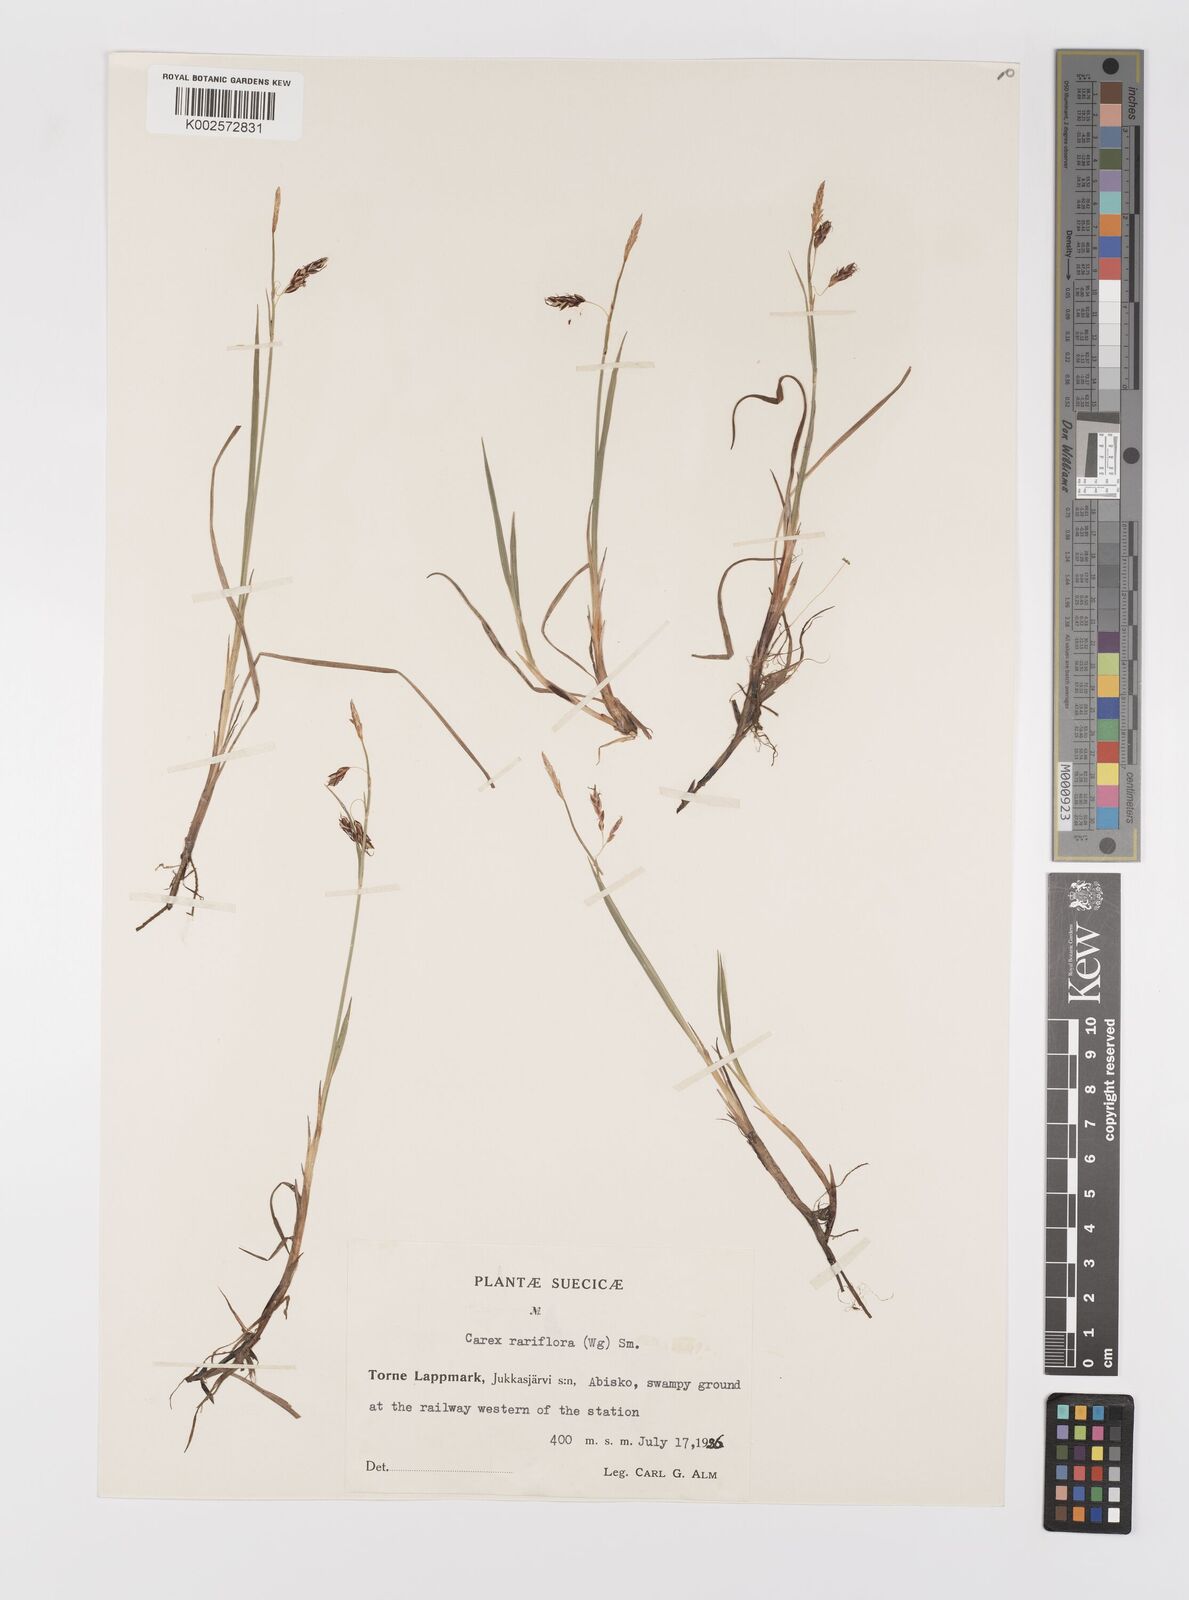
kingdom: Plantae
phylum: Tracheophyta
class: Liliopsida
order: Poales
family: Cyperaceae
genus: Carex
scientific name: Carex rariflora
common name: Loose-flowered alpine sedge
